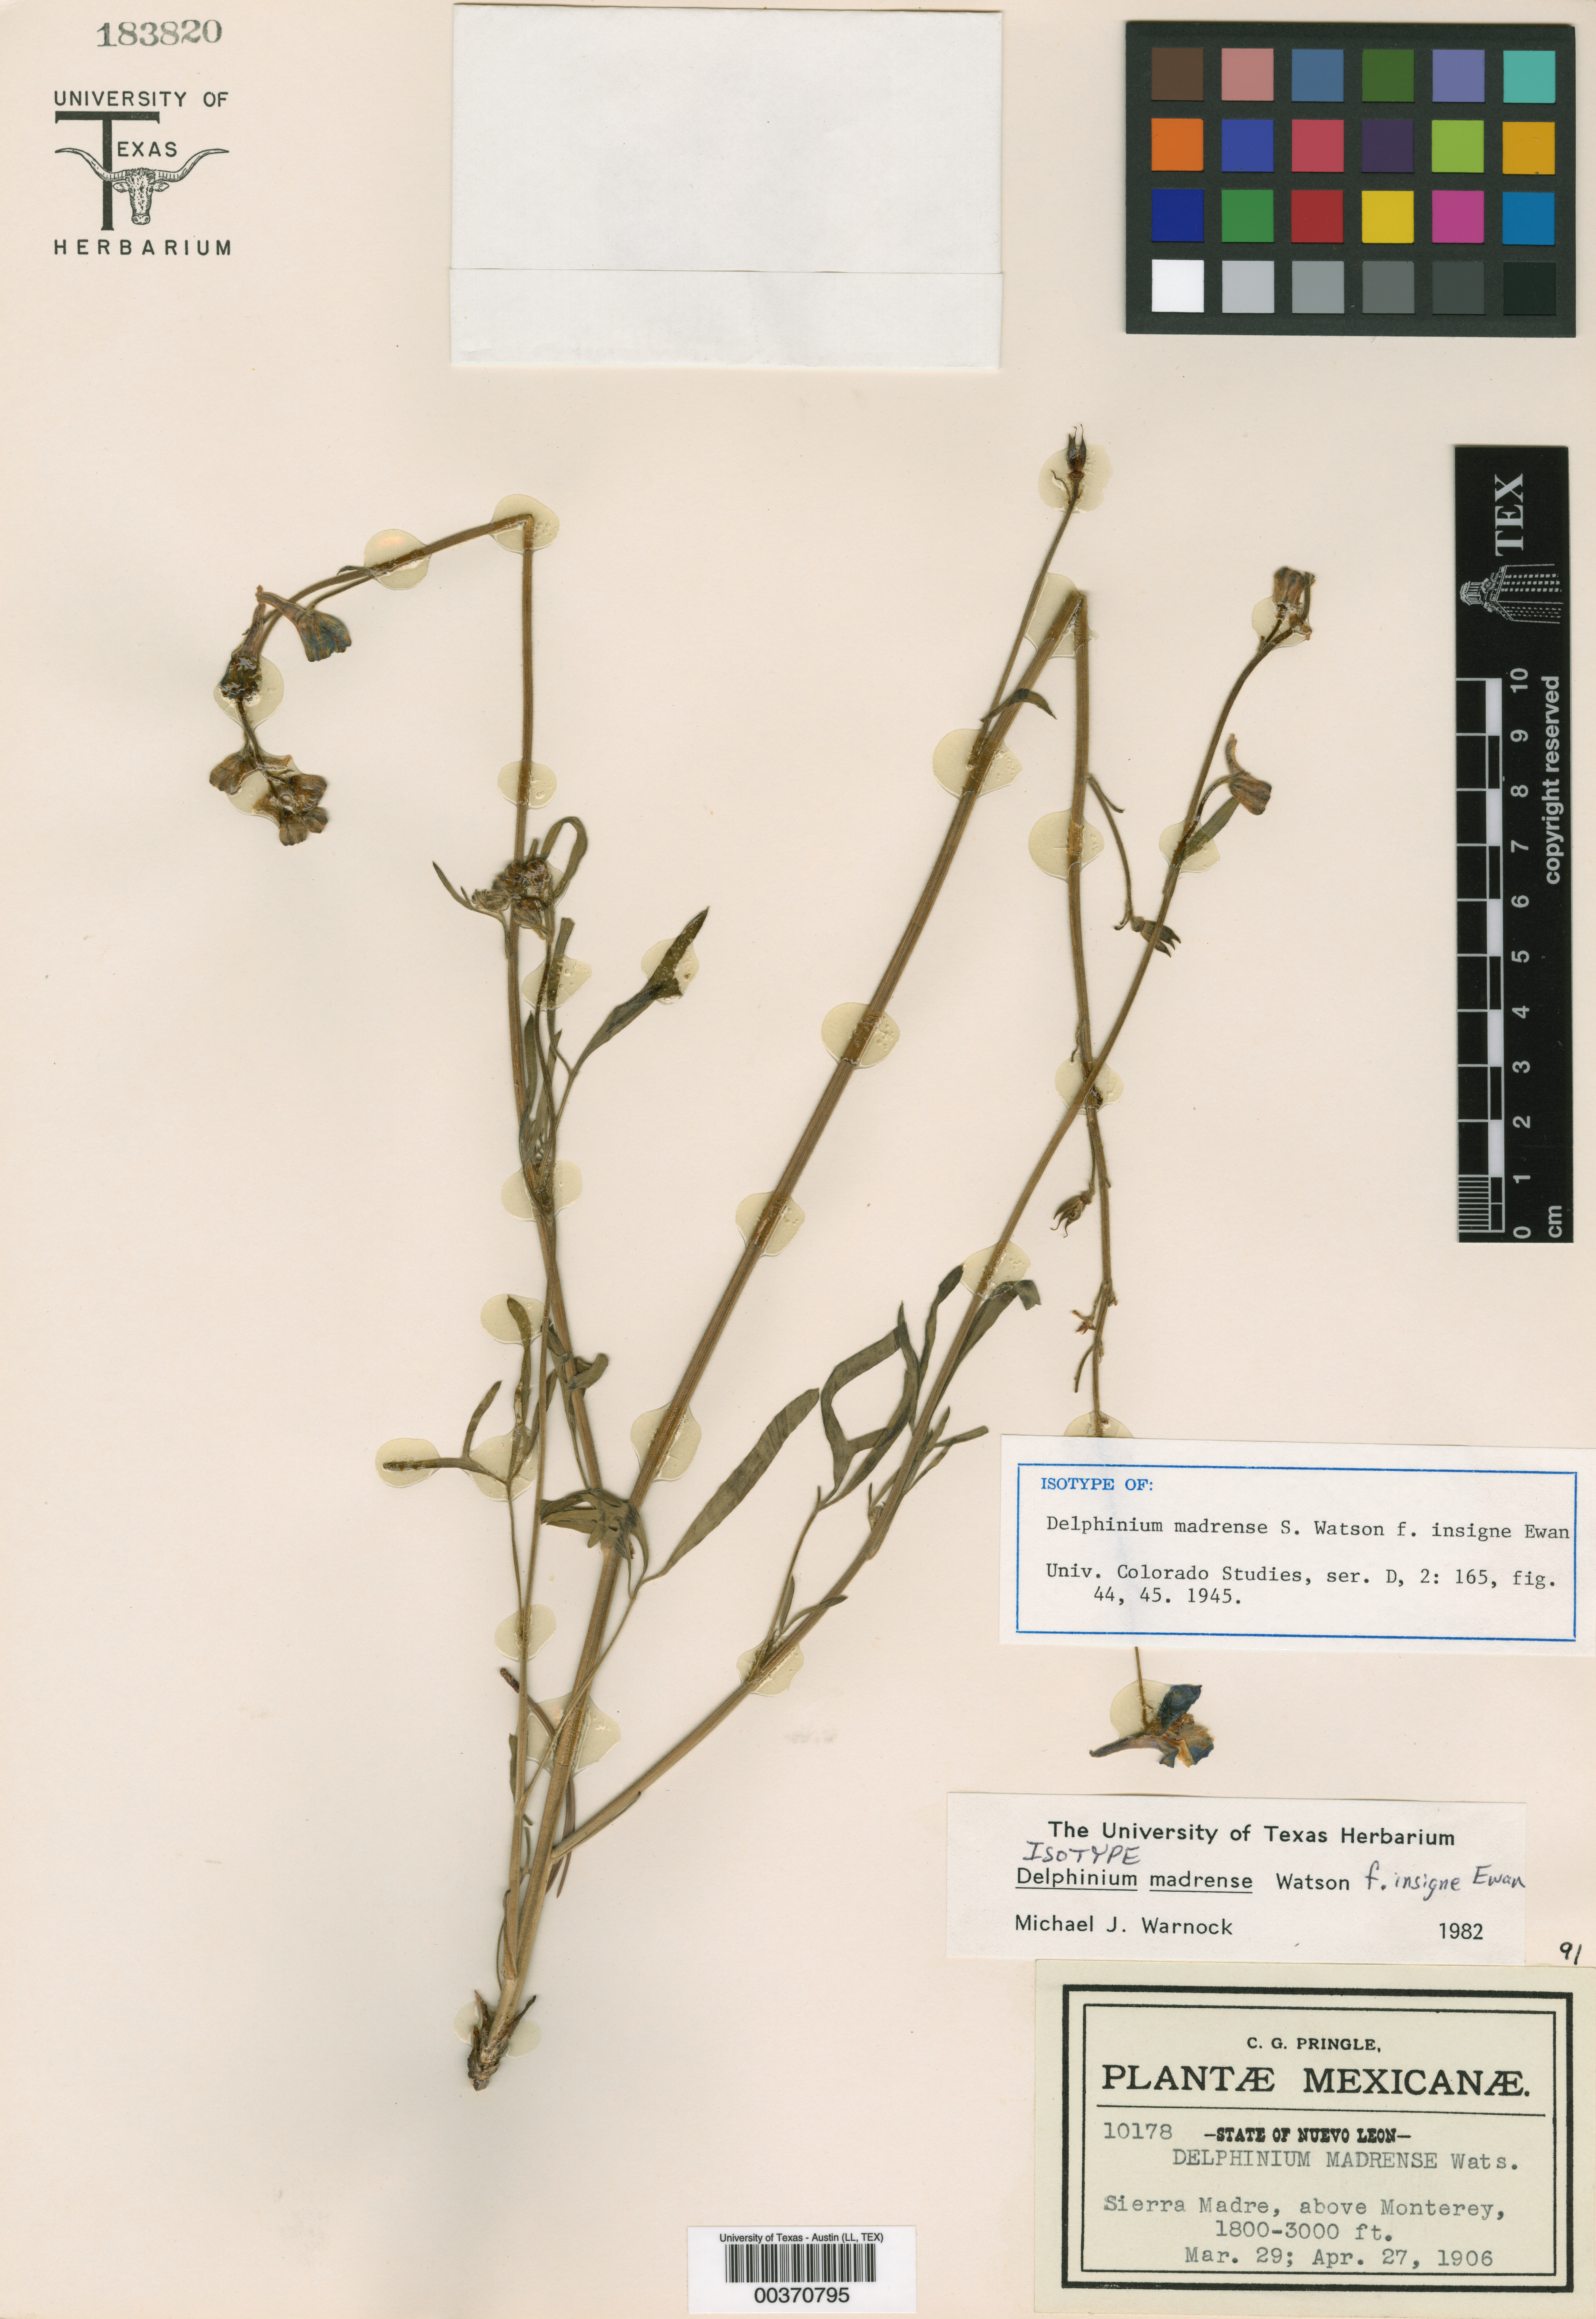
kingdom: Plantae
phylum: Tracheophyta
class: Magnoliopsida
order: Ranunculales
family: Ranunculaceae
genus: Delphinium
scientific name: Delphinium madrense
